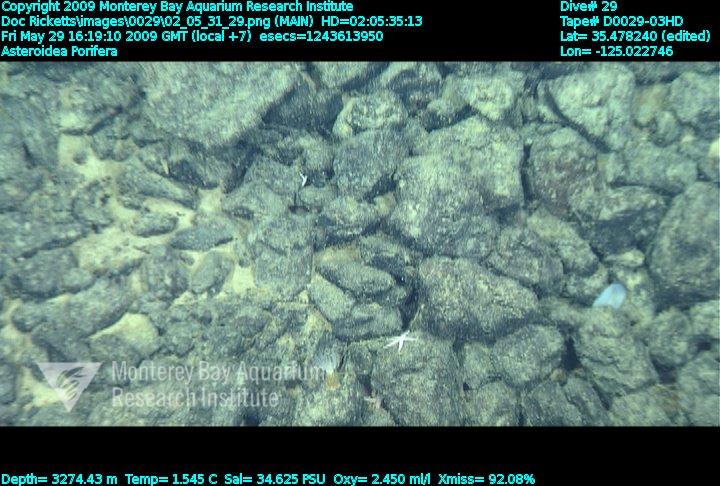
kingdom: Animalia
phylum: Porifera
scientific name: Porifera
